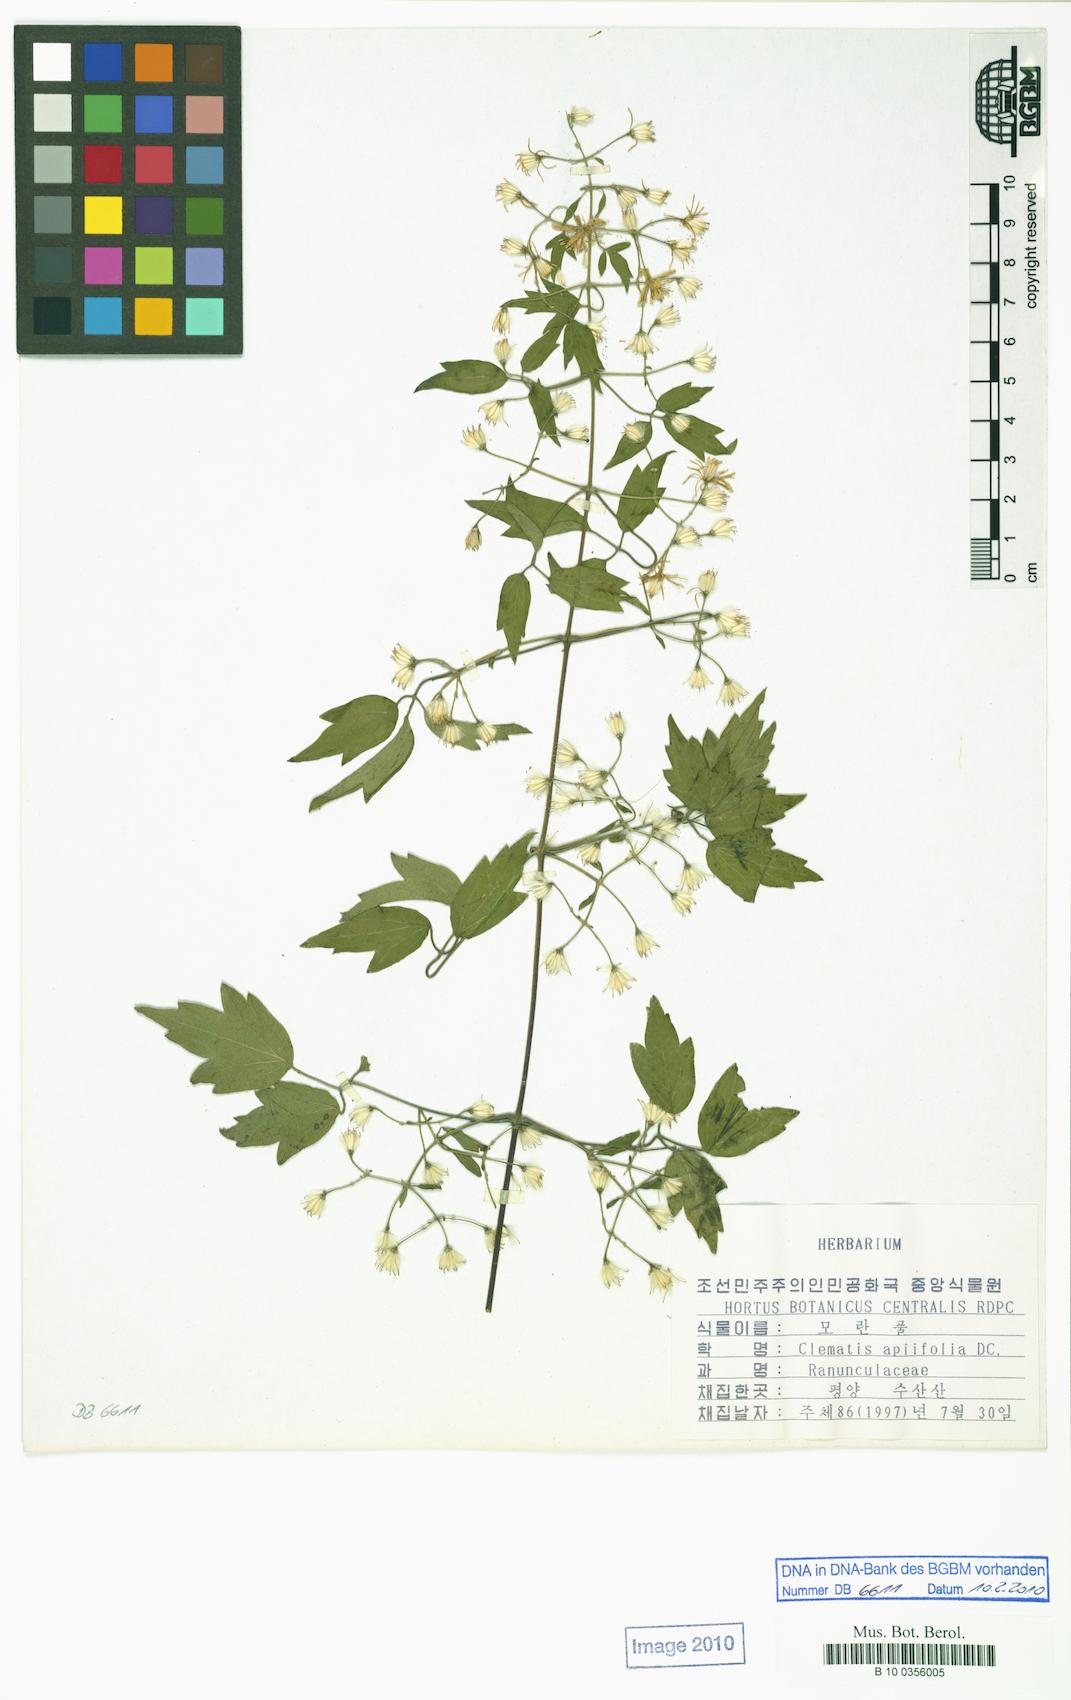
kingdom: Plantae
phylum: Tracheophyta
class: Magnoliopsida
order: Ranunculales
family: Ranunculaceae
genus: Clematis
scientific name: Clematis apiifolia
